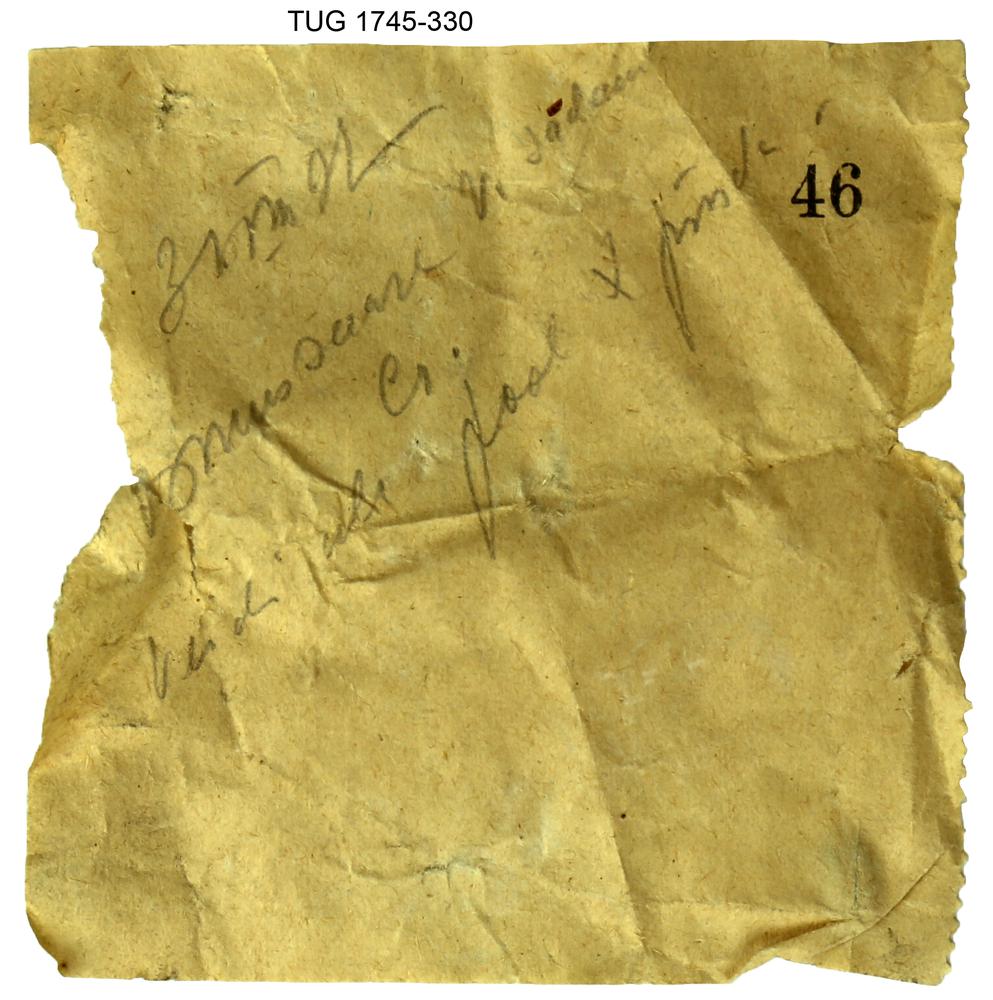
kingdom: Animalia
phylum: Mollusca
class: Cephalopoda
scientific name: Cephalopoda
